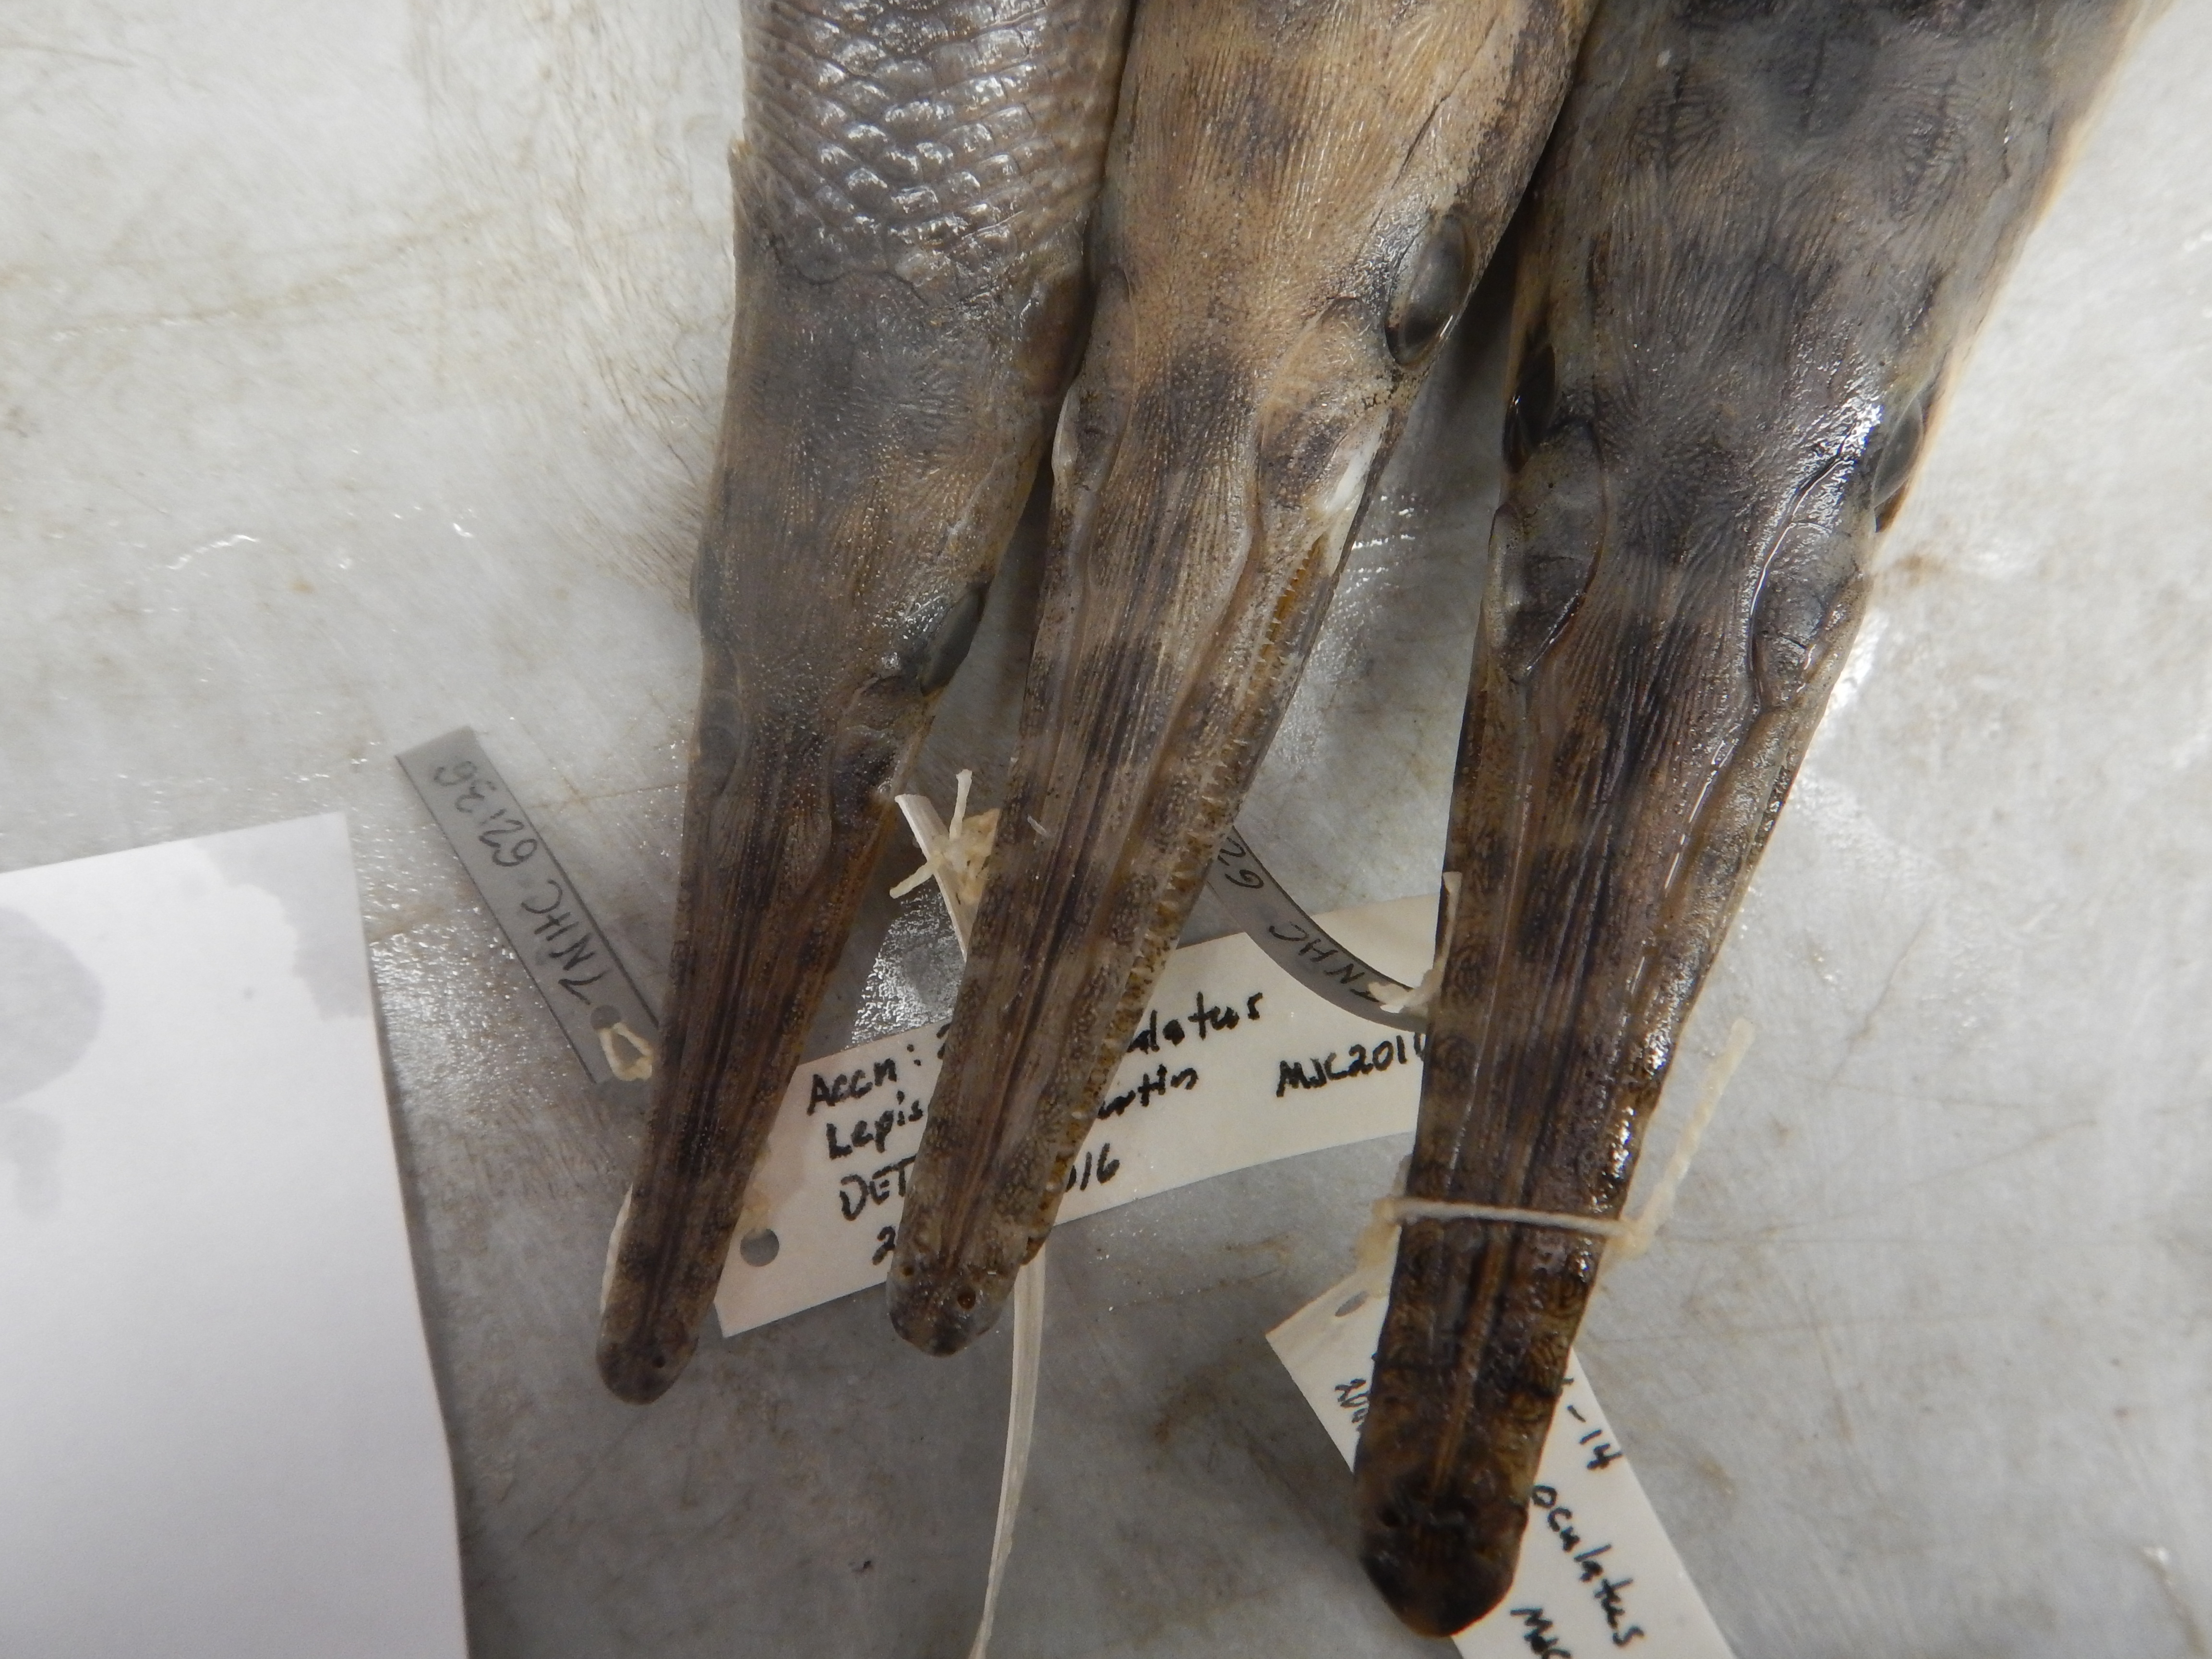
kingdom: Animalia
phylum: Chordata
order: Lepisosteiformes
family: Lepisosteidae
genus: Lepisosteus
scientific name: Lepisosteus oculatus
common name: Spotted gar
